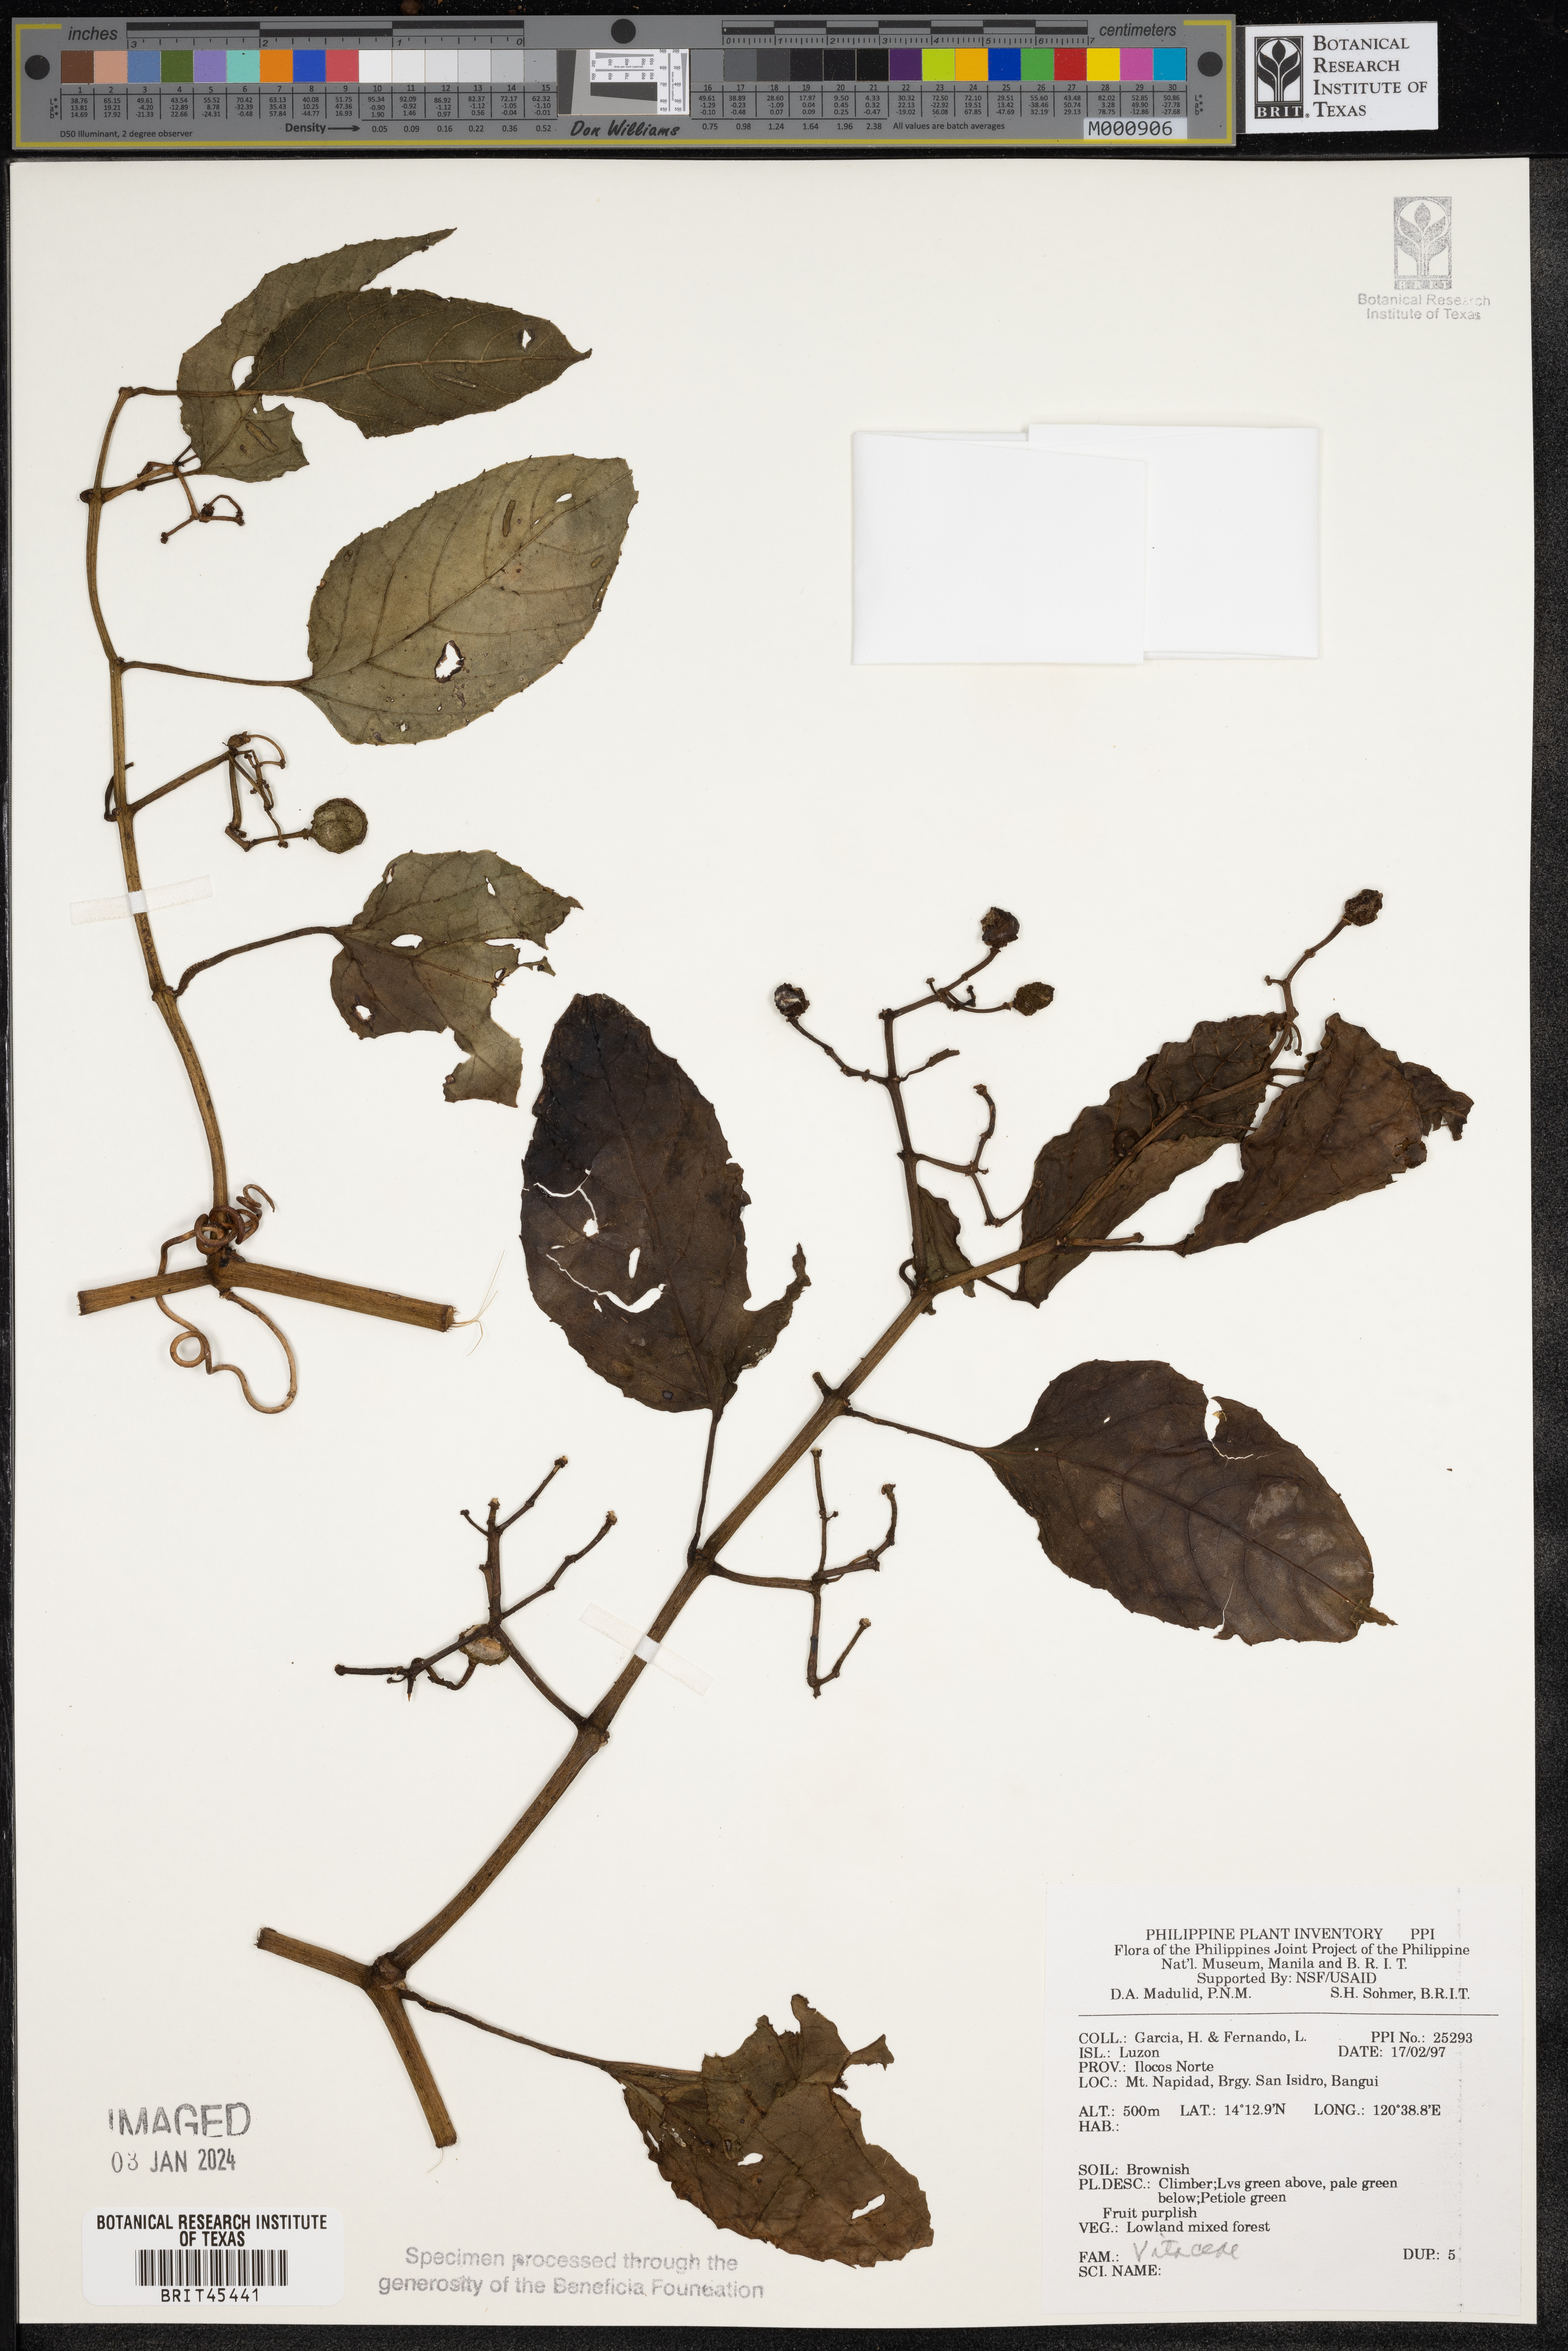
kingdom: Plantae
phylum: Tracheophyta
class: Magnoliopsida
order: Vitales
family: Vitaceae
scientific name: Vitaceae
